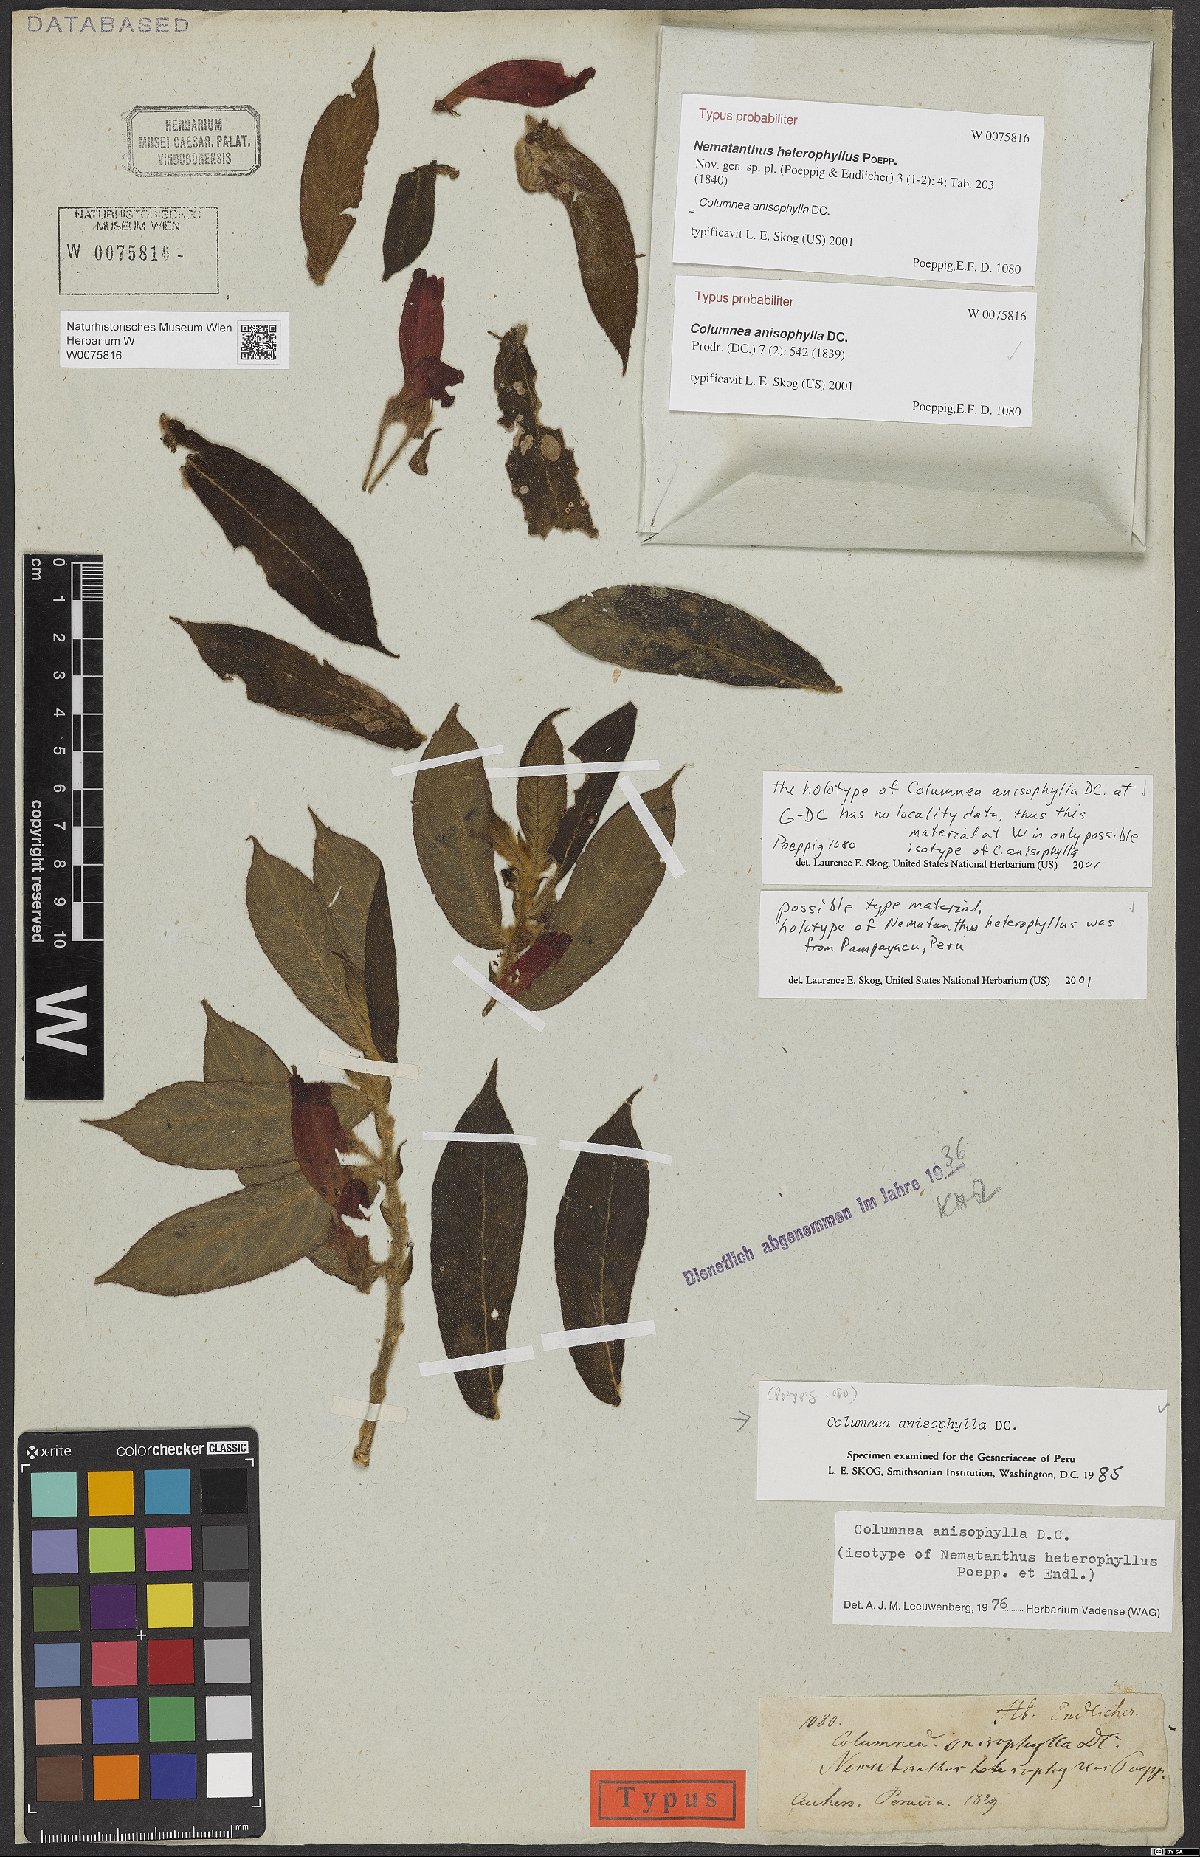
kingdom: Plantae
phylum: Tracheophyta
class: Magnoliopsida
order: Lamiales
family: Gesneriaceae
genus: Columnea
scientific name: Columnea anisophylla
